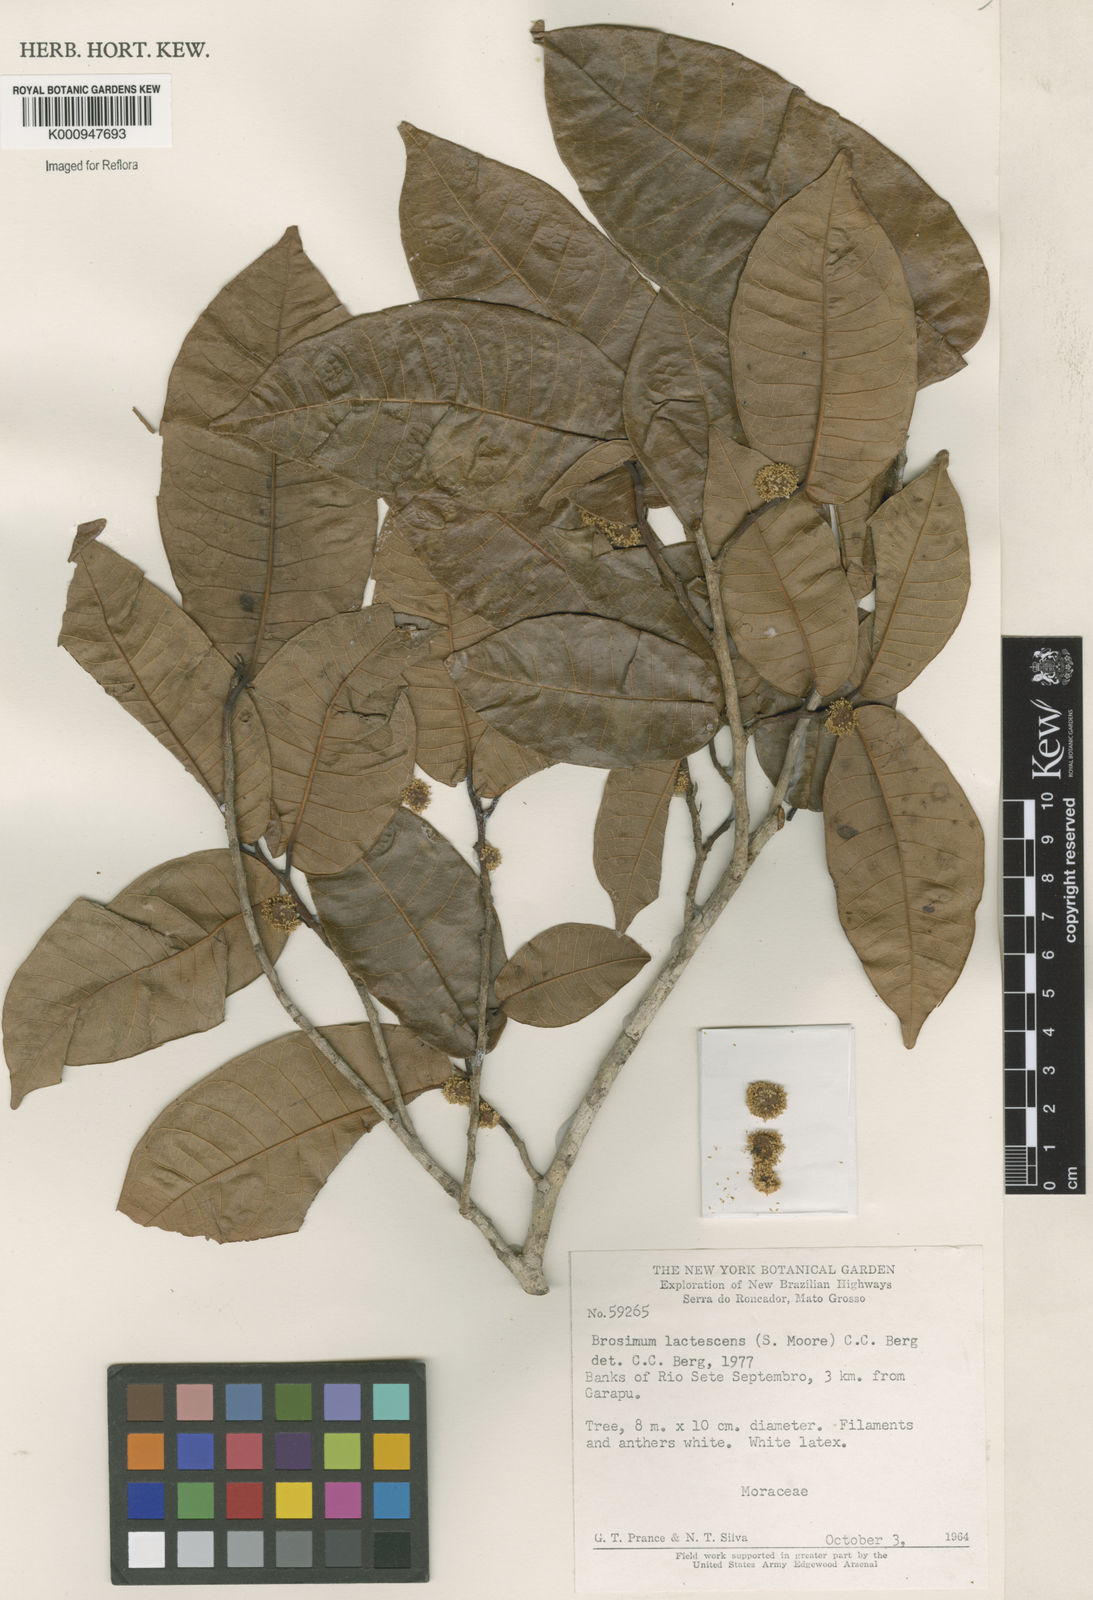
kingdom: Plantae
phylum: Tracheophyta
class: Magnoliopsida
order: Rosales
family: Moraceae
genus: Brosimum
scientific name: Brosimum lactescens
